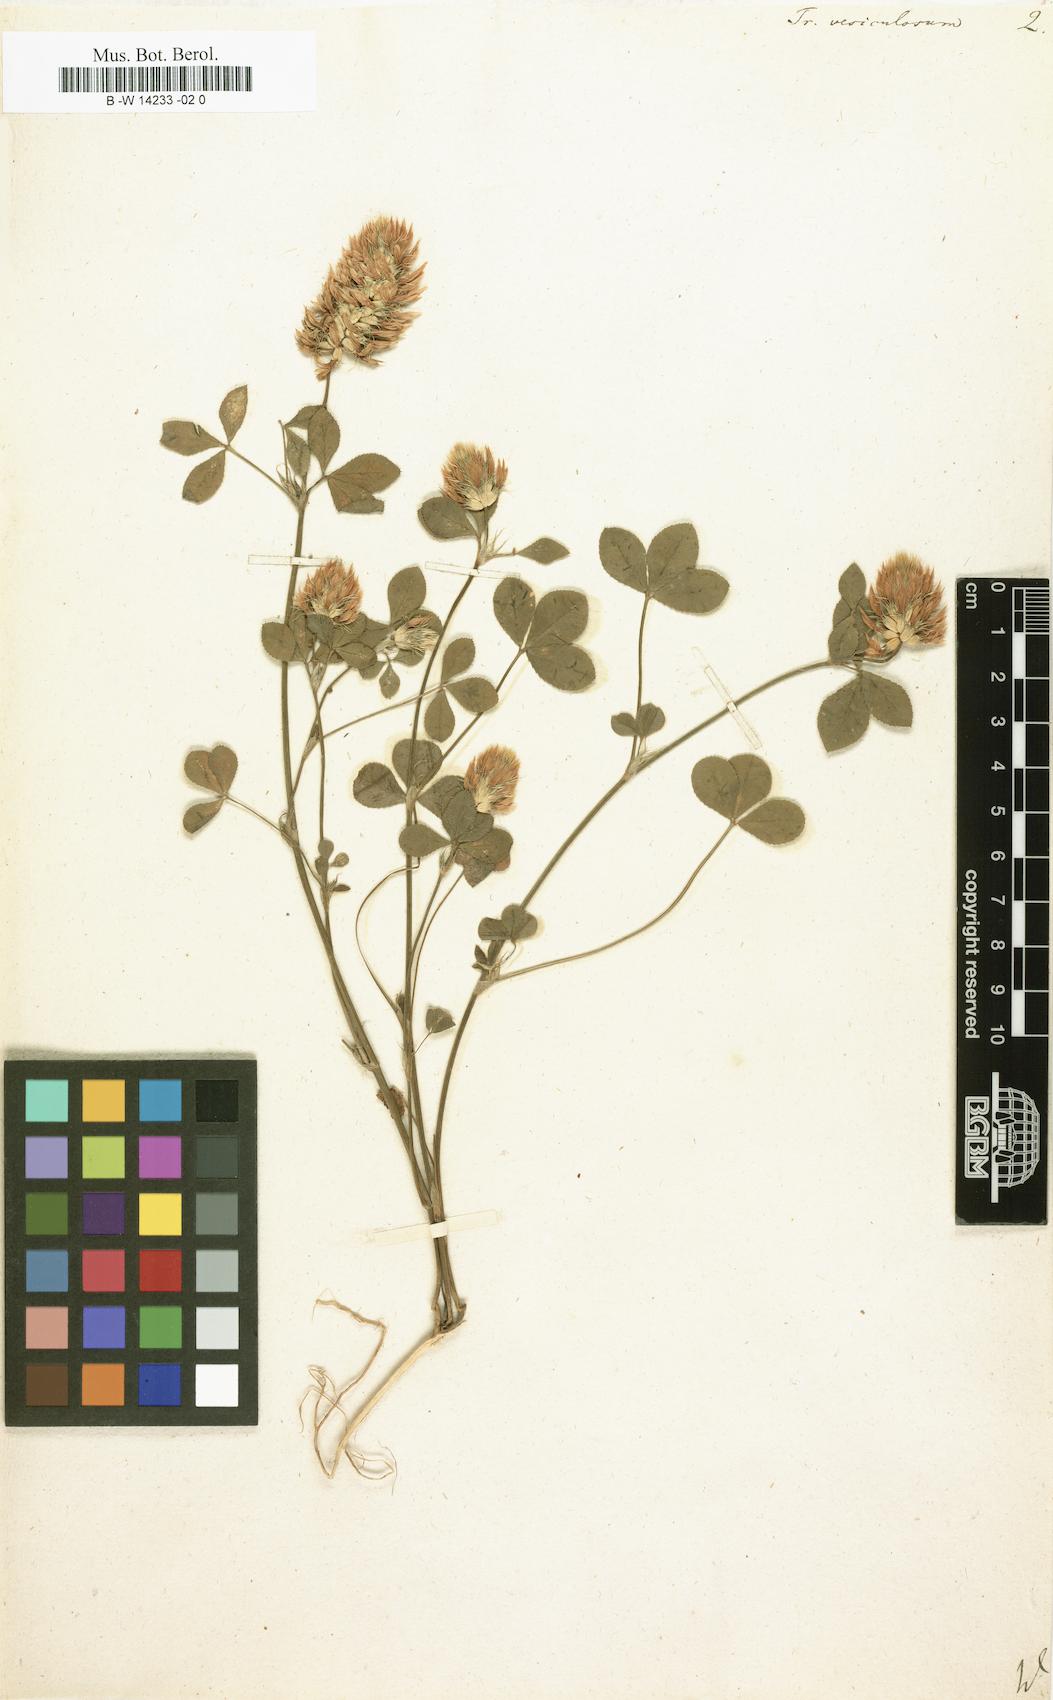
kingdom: Plantae
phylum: Tracheophyta
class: Magnoliopsida
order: Fabales
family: Fabaceae
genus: Trifolium
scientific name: Trifolium vesiculosum
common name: Arrowleaf clover
